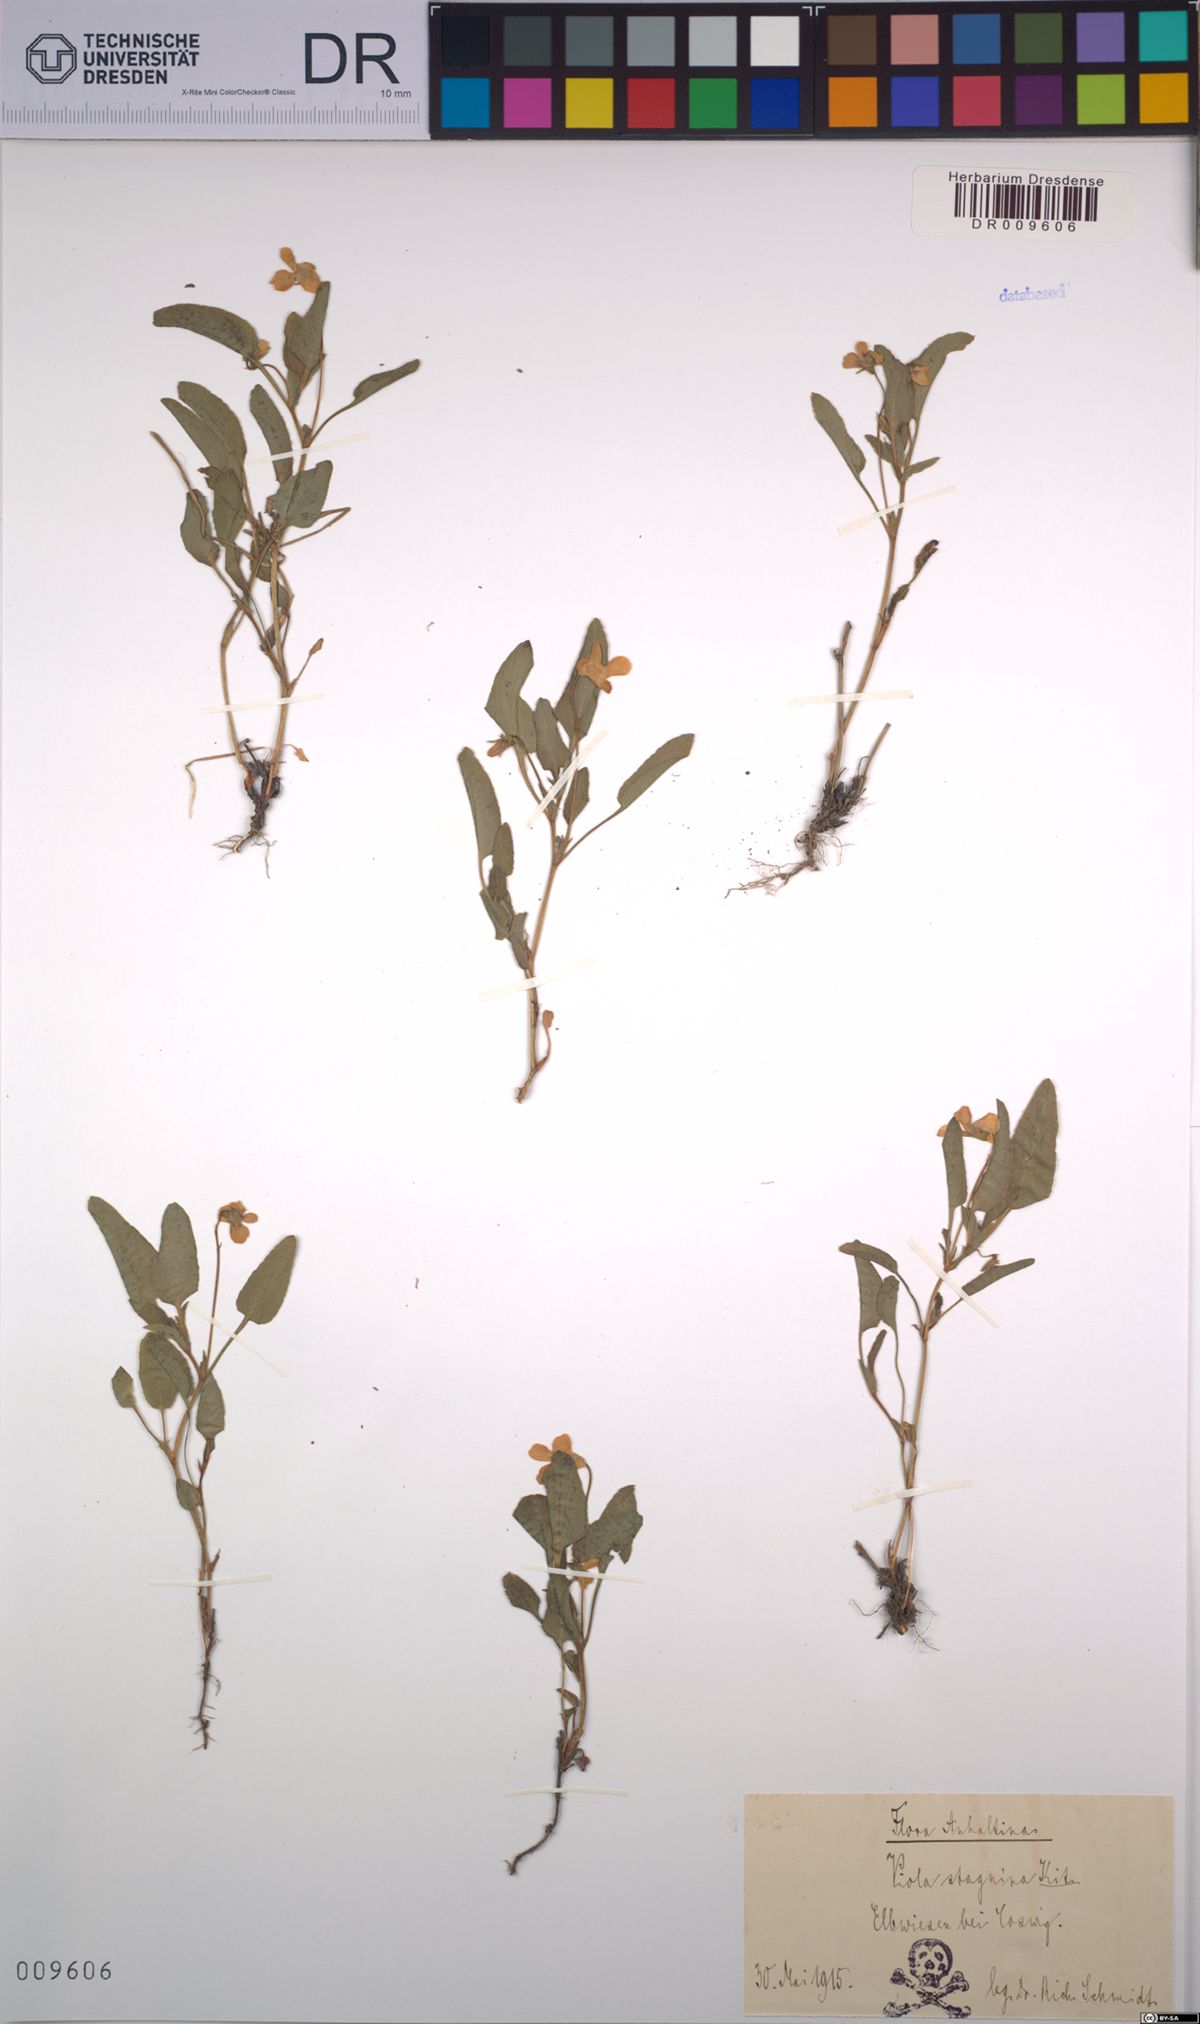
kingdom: Plantae
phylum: Tracheophyta
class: Magnoliopsida
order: Malpighiales
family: Violaceae
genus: Viola
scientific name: Viola stagnina
